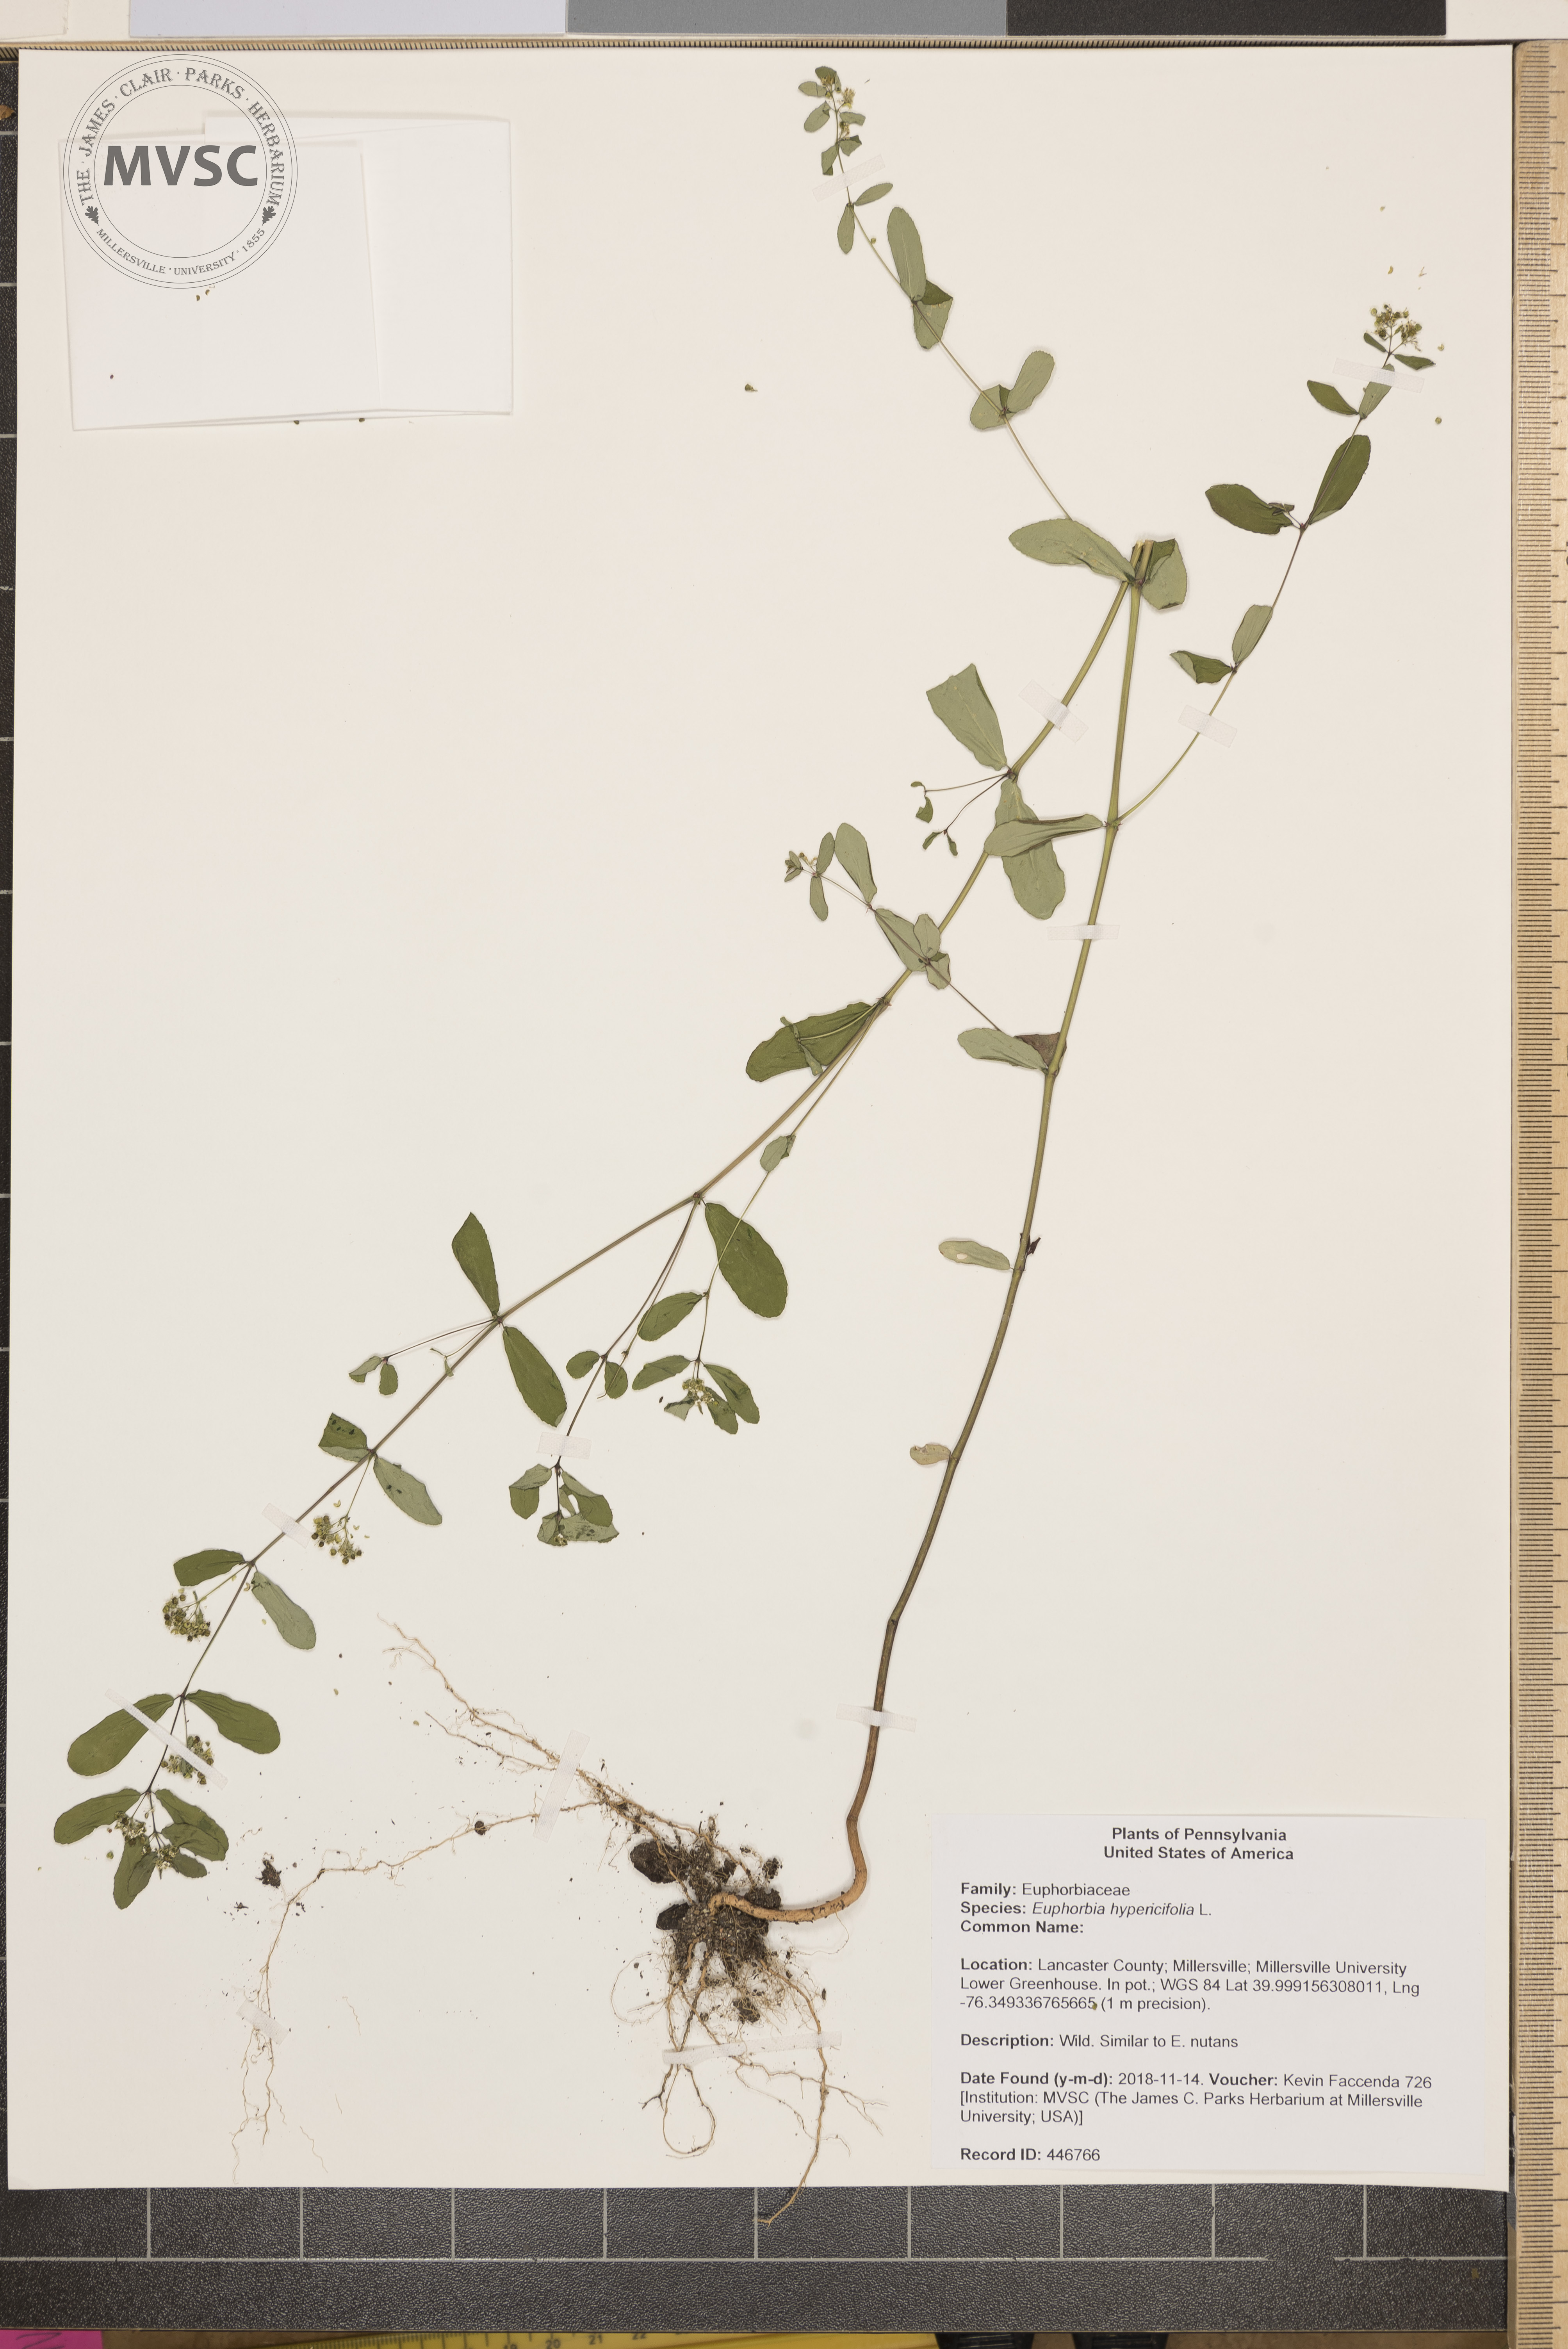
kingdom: Plantae
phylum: Tracheophyta
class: Magnoliopsida
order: Malpighiales
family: Euphorbiaceae
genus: Euphorbia
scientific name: Euphorbia hypericifolia
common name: Graceful sandmat
